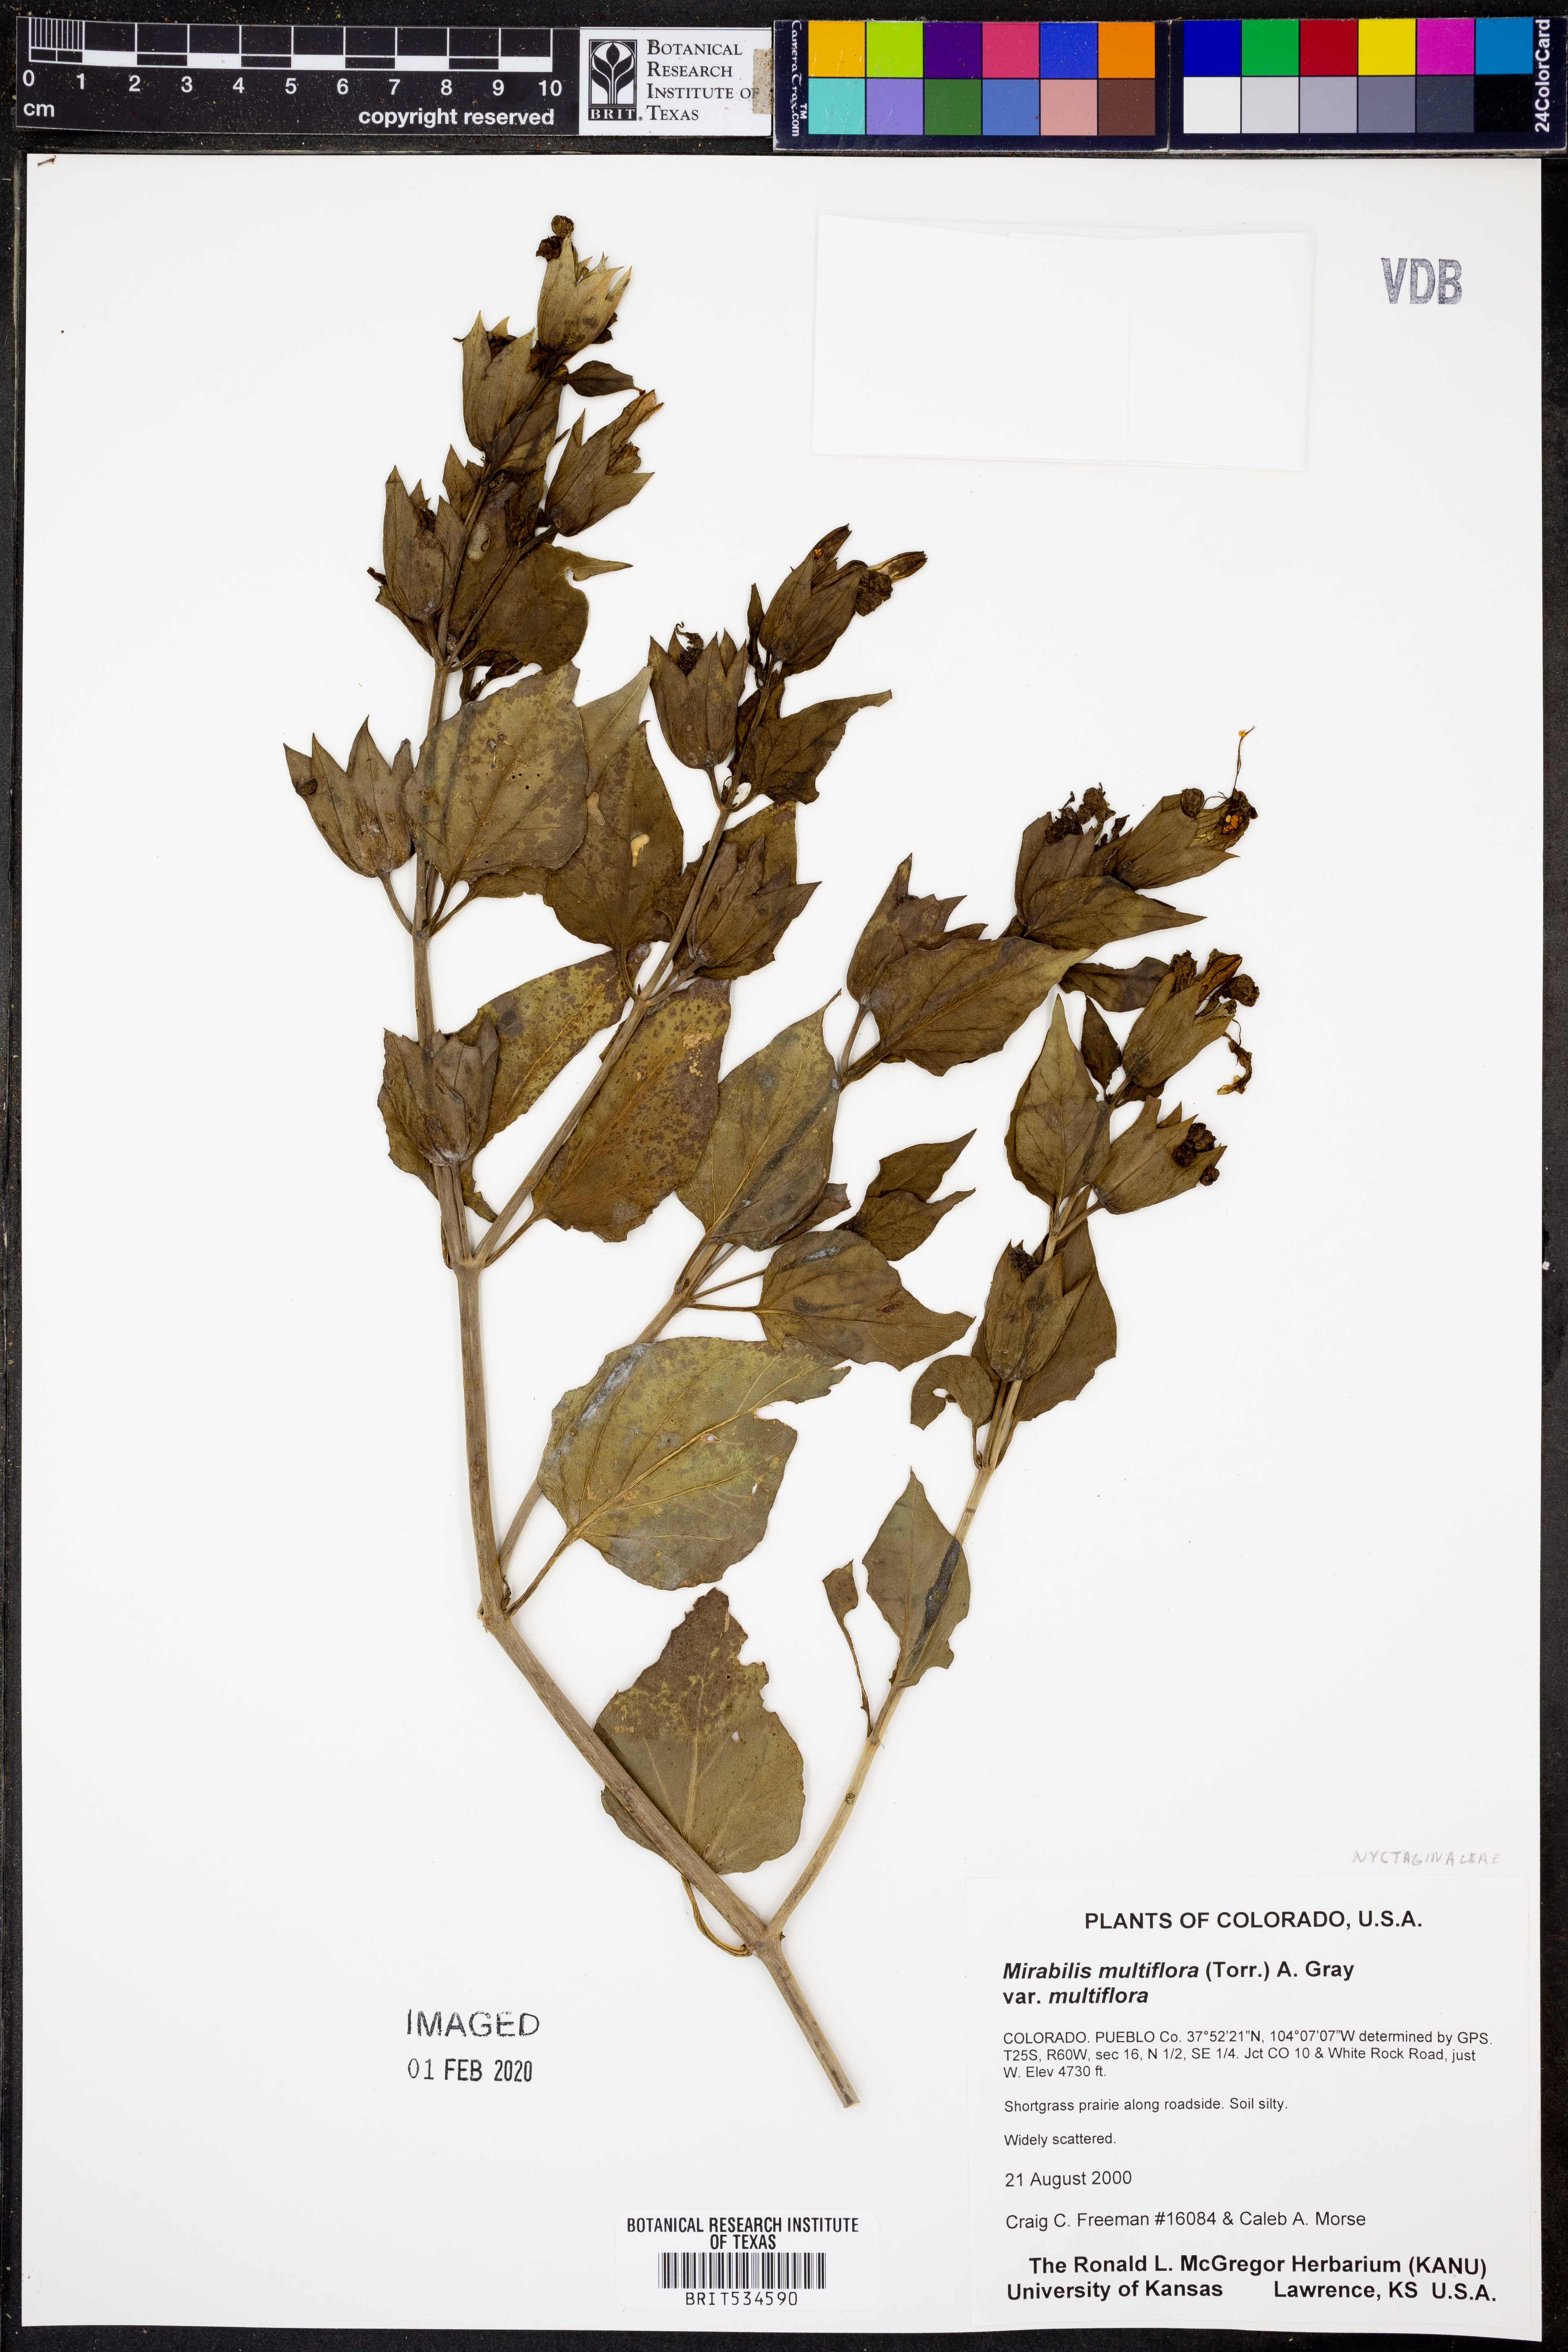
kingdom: Plantae
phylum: Tracheophyta
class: Magnoliopsida
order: Caryophyllales
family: Nyctaginaceae
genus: Mirabilis
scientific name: Mirabilis multiflora
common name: Froebel's four-o'clock
